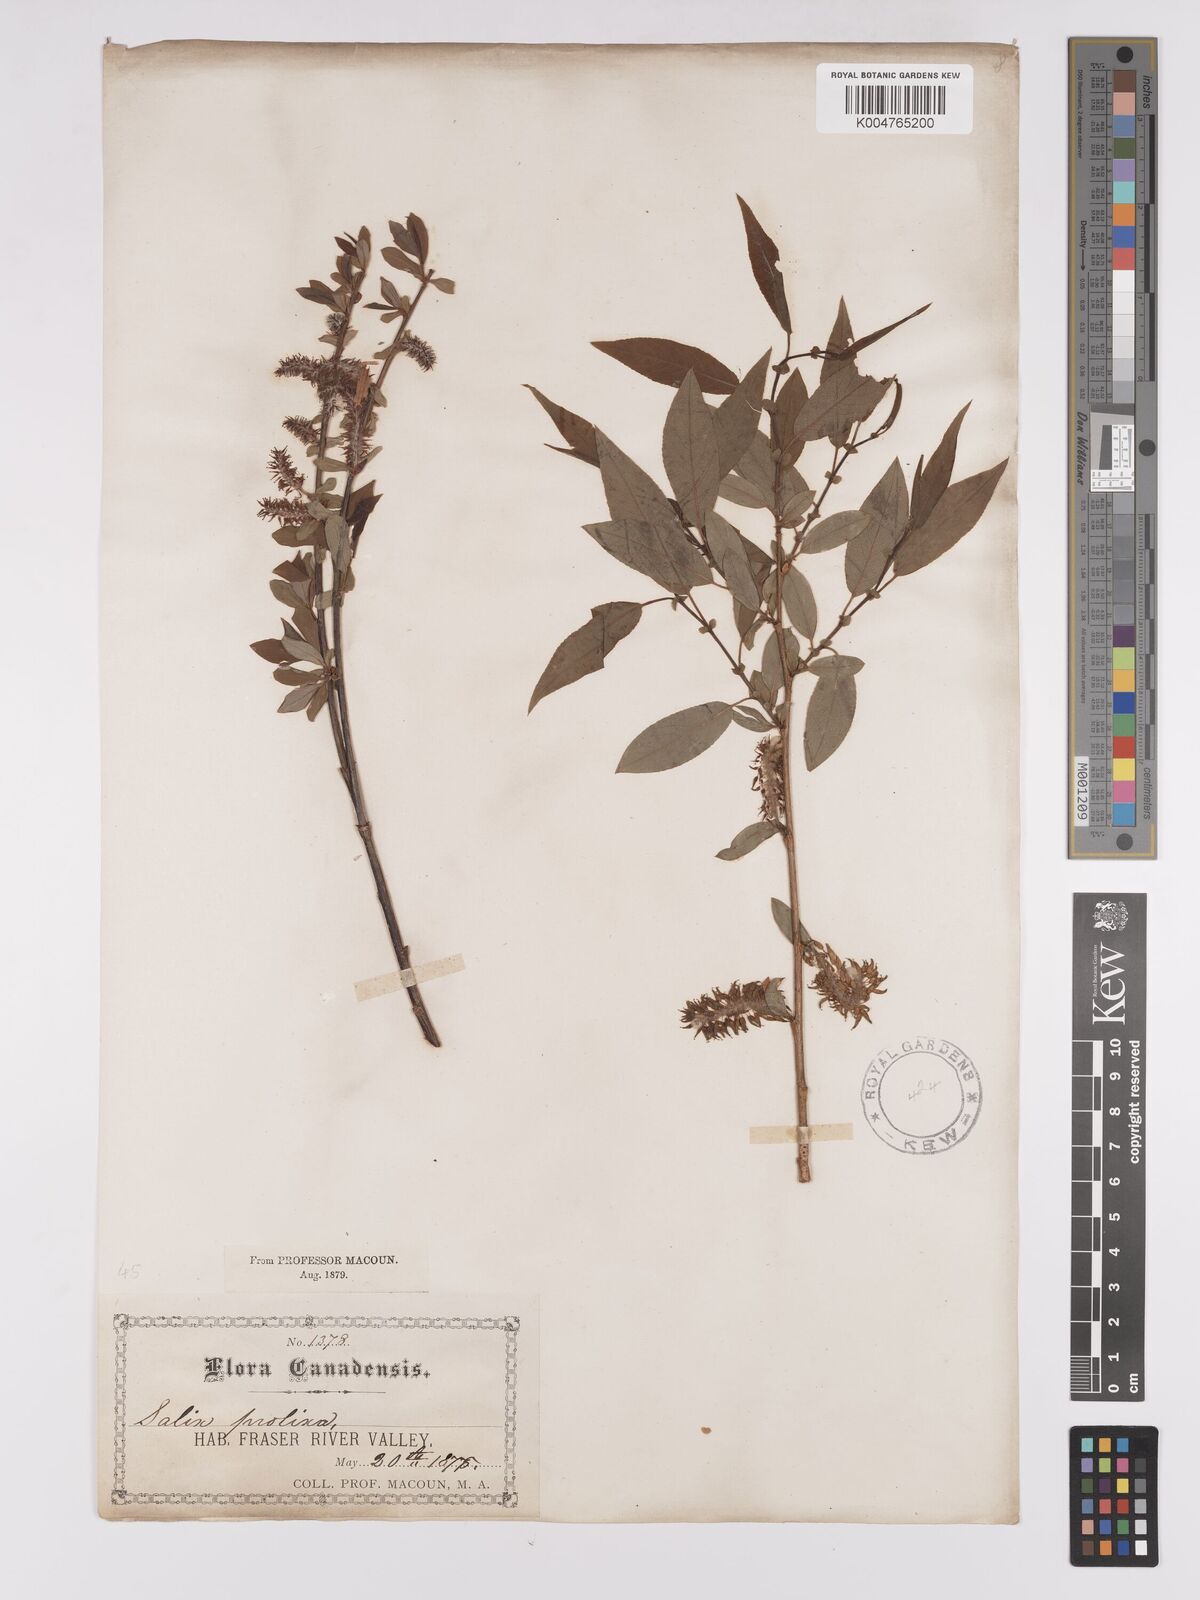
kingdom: Plantae
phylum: Tracheophyta
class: Magnoliopsida
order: Malpighiales
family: Salicaceae
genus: Salix
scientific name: Salix prolixa
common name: Mackenzie's willow
